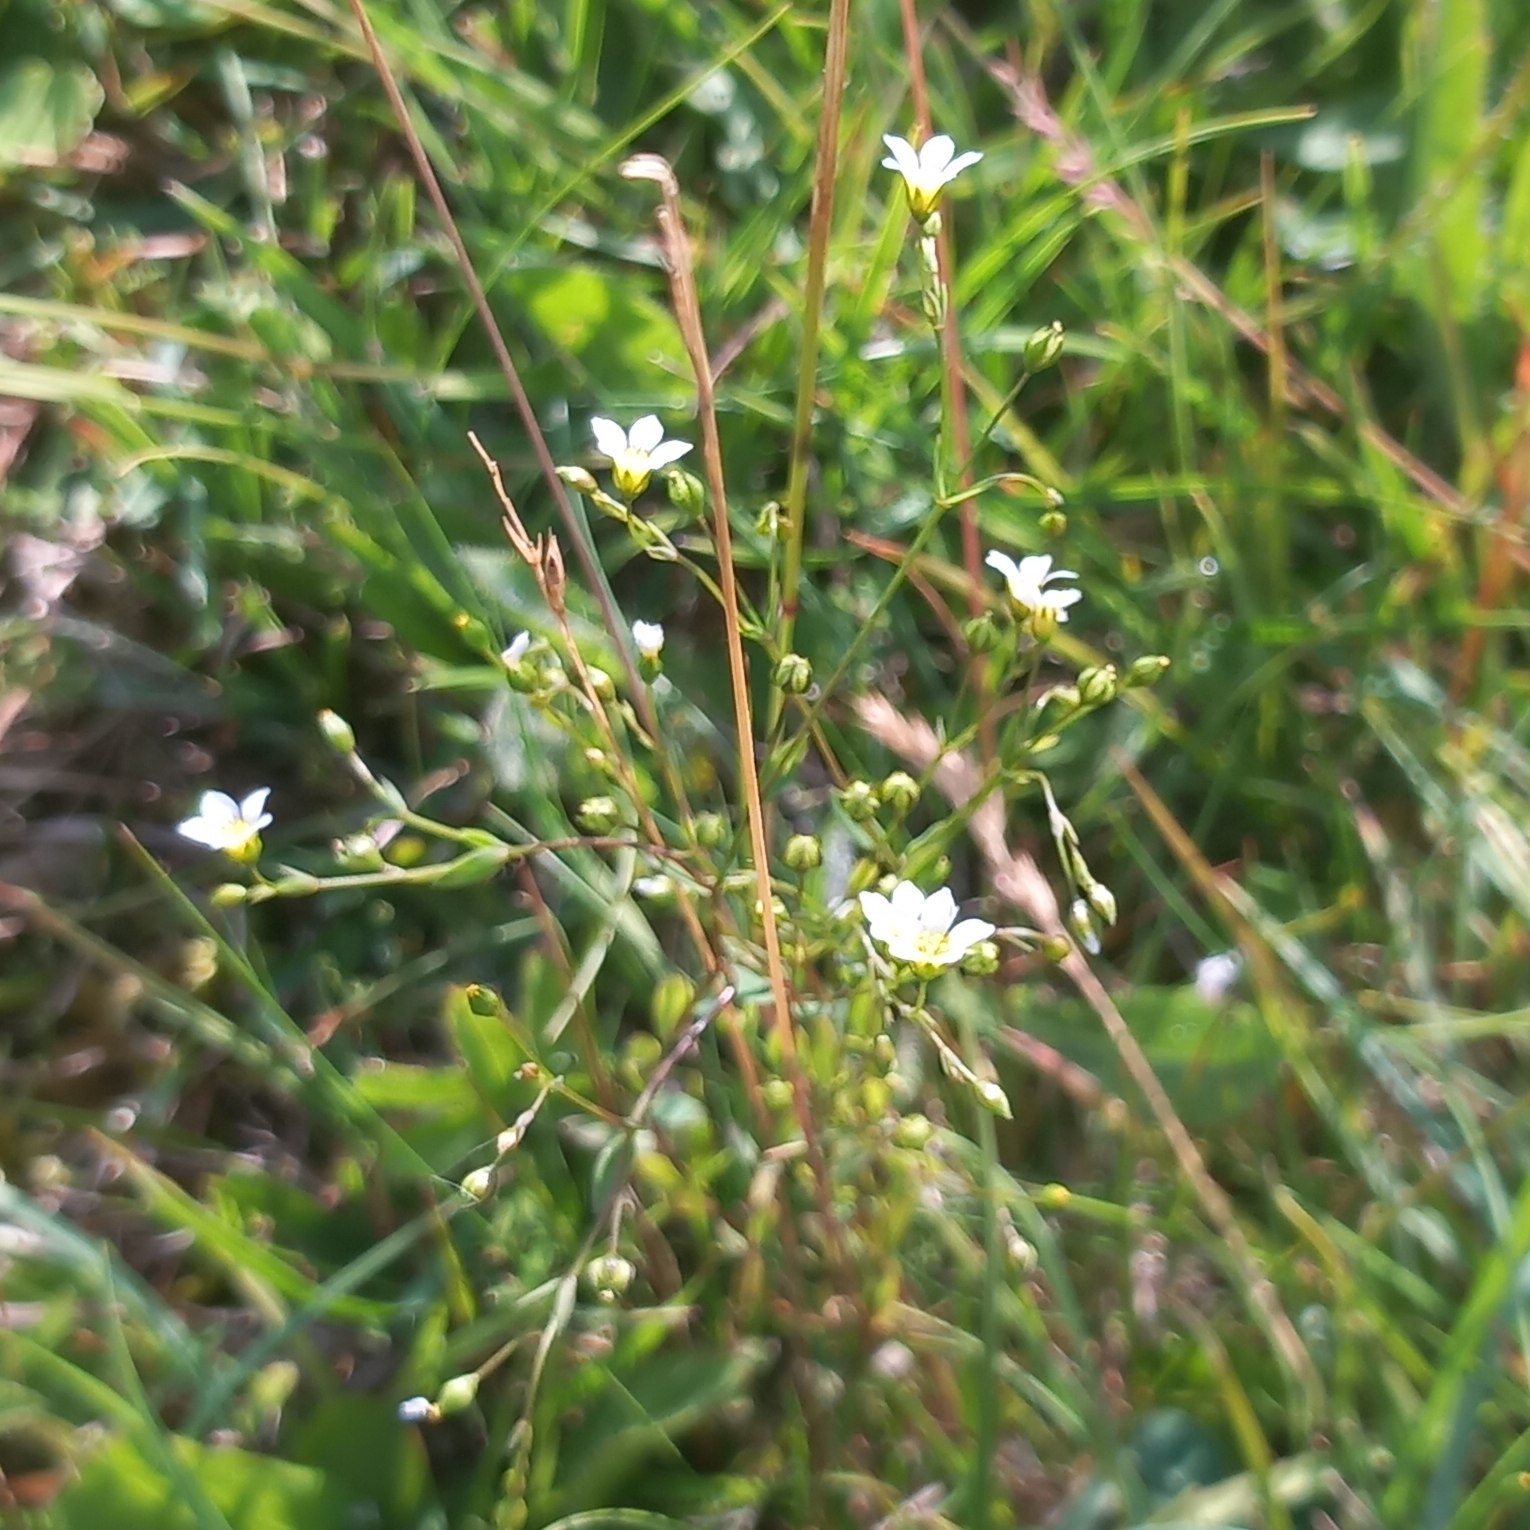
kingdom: Plantae
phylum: Tracheophyta
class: Magnoliopsida
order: Malpighiales
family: Linaceae
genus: Linum
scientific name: Linum catharticum
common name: Vild hør
